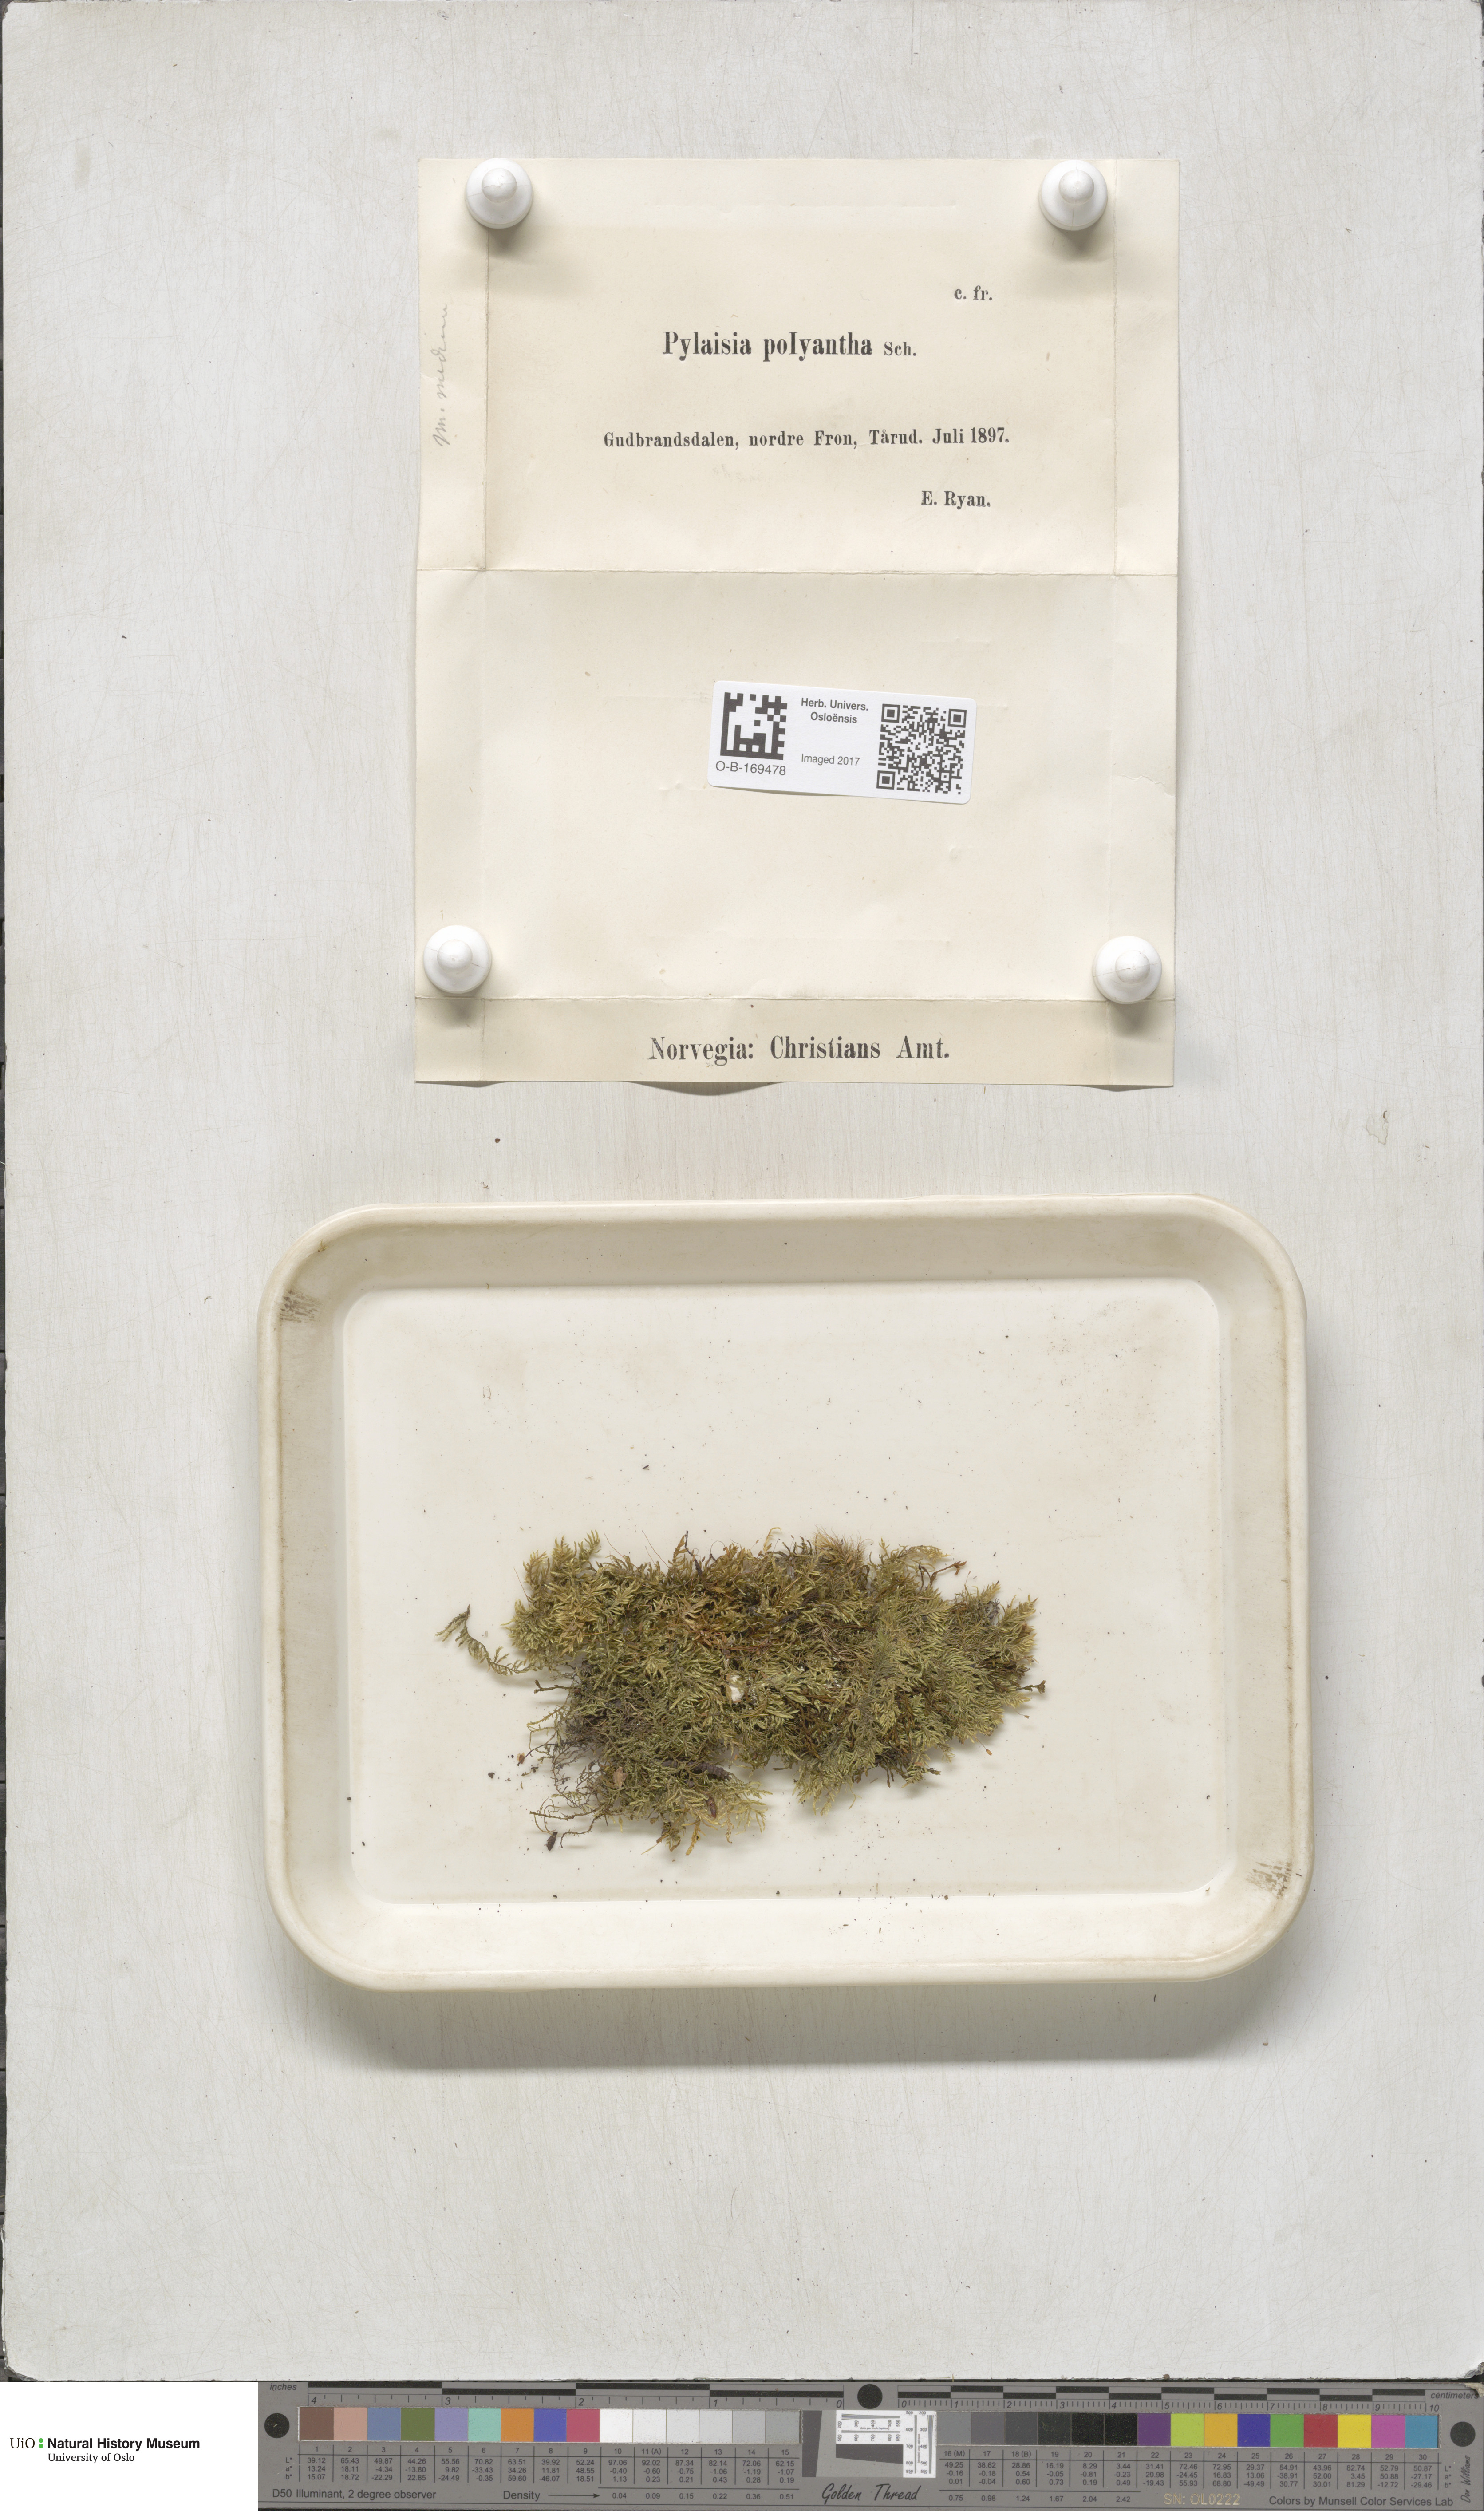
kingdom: Plantae
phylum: Bryophyta
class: Bryopsida
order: Hypnales
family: Pylaisiaceae
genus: Pylaisia
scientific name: Pylaisia polyantha
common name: Many-flowered leskea
